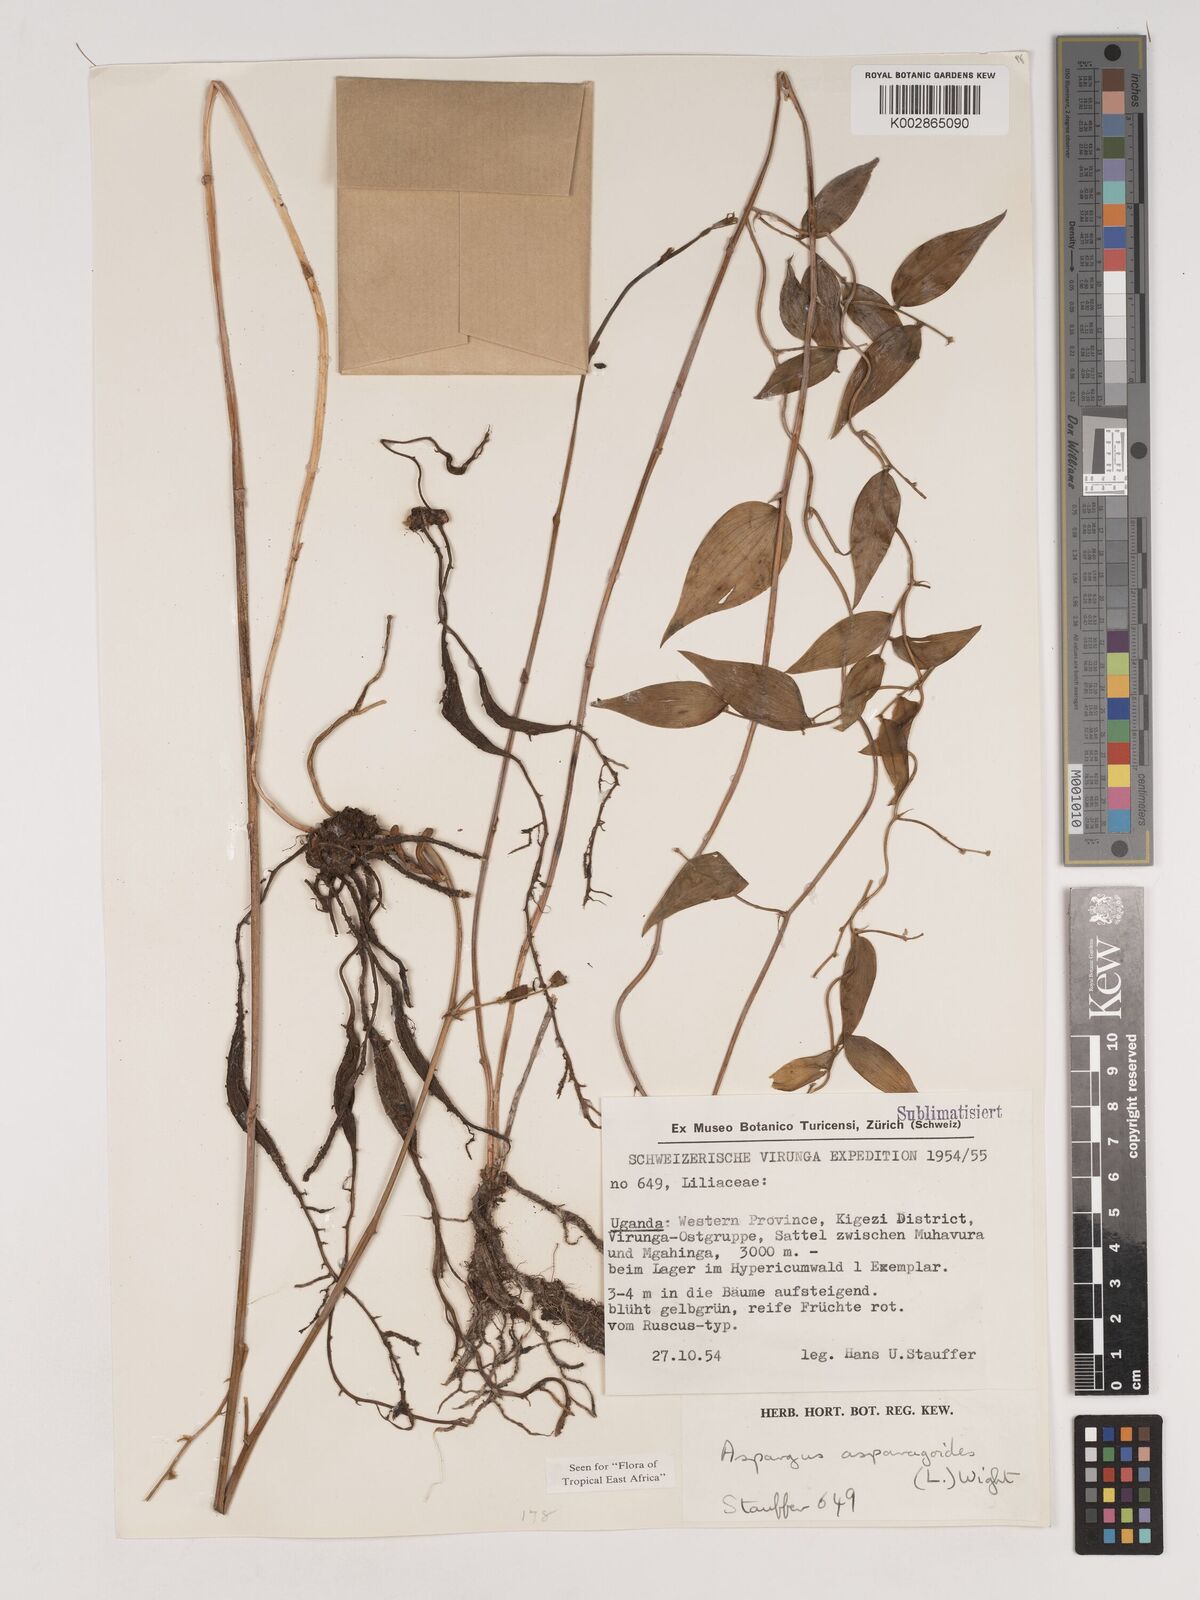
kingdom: Plantae
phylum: Tracheophyta
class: Liliopsida
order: Asparagales
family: Asparagaceae
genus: Asparagus
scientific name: Asparagus asparagoides
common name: African asparagus fern
